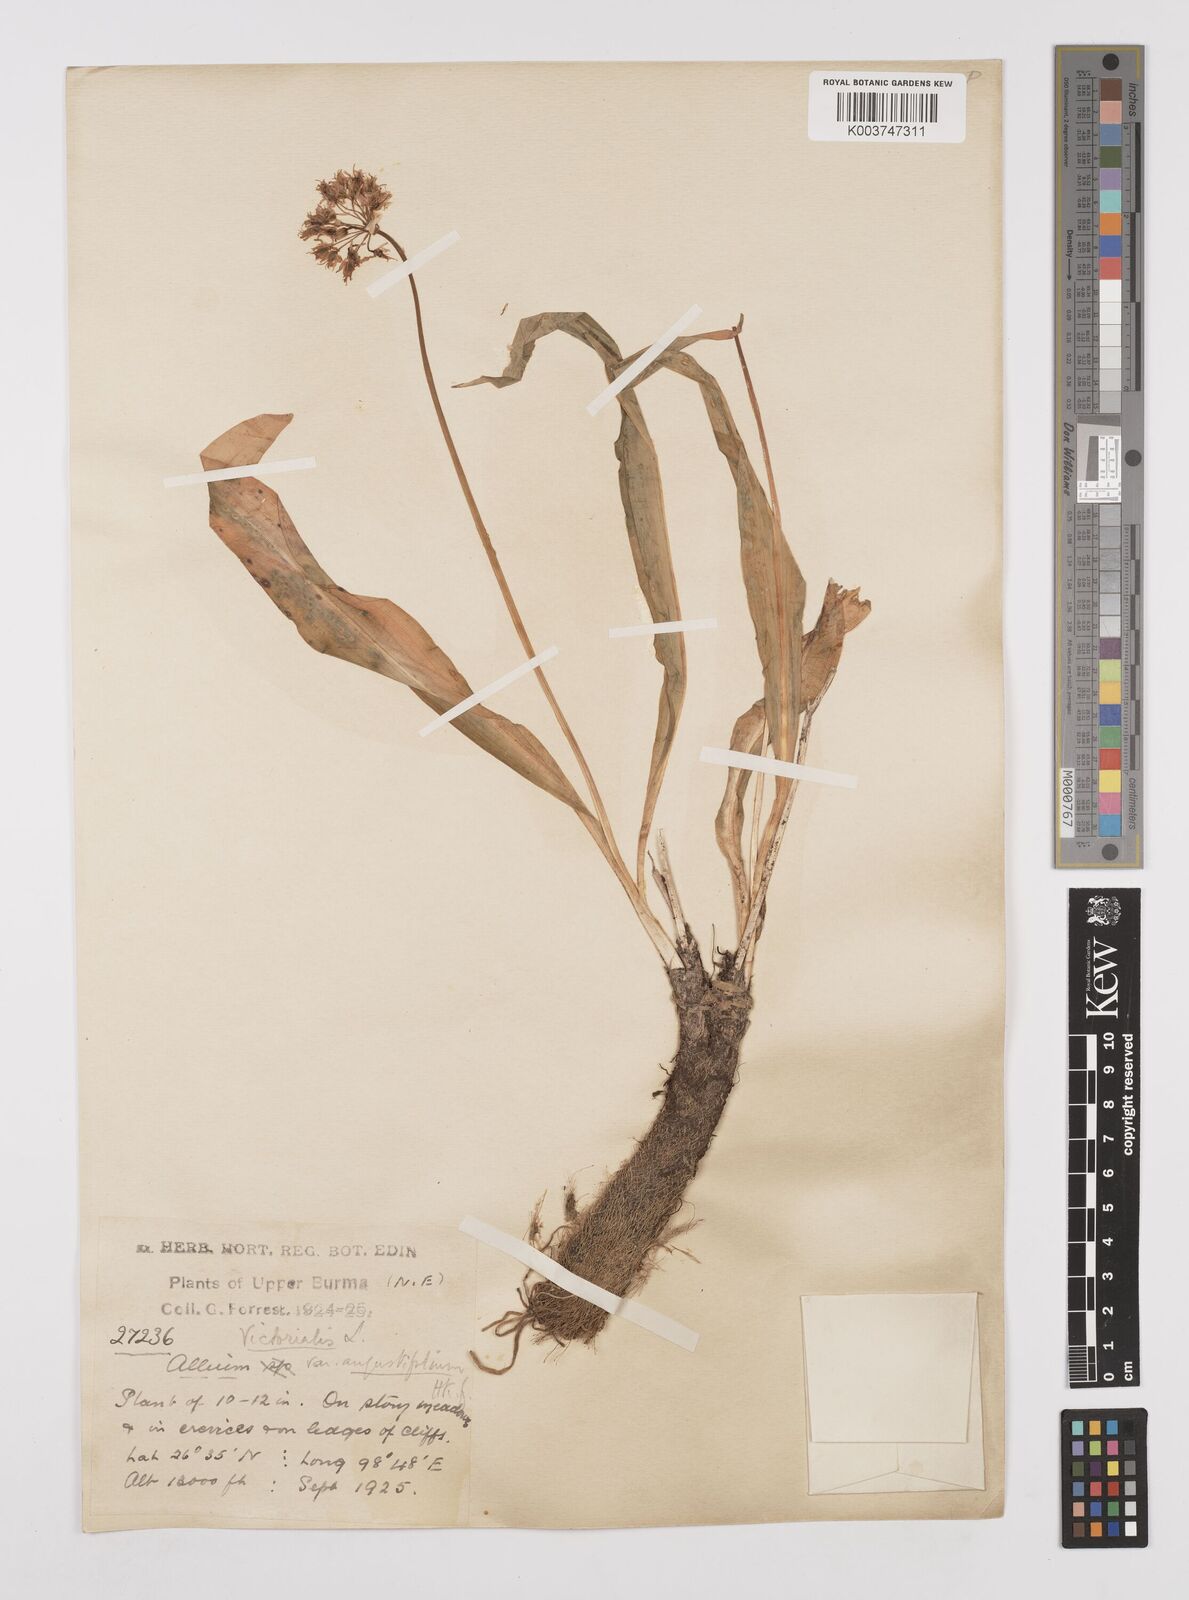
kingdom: Plantae
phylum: Tracheophyta
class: Liliopsida
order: Asparagales
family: Amaryllidaceae
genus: Allium
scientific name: Allium prattii
